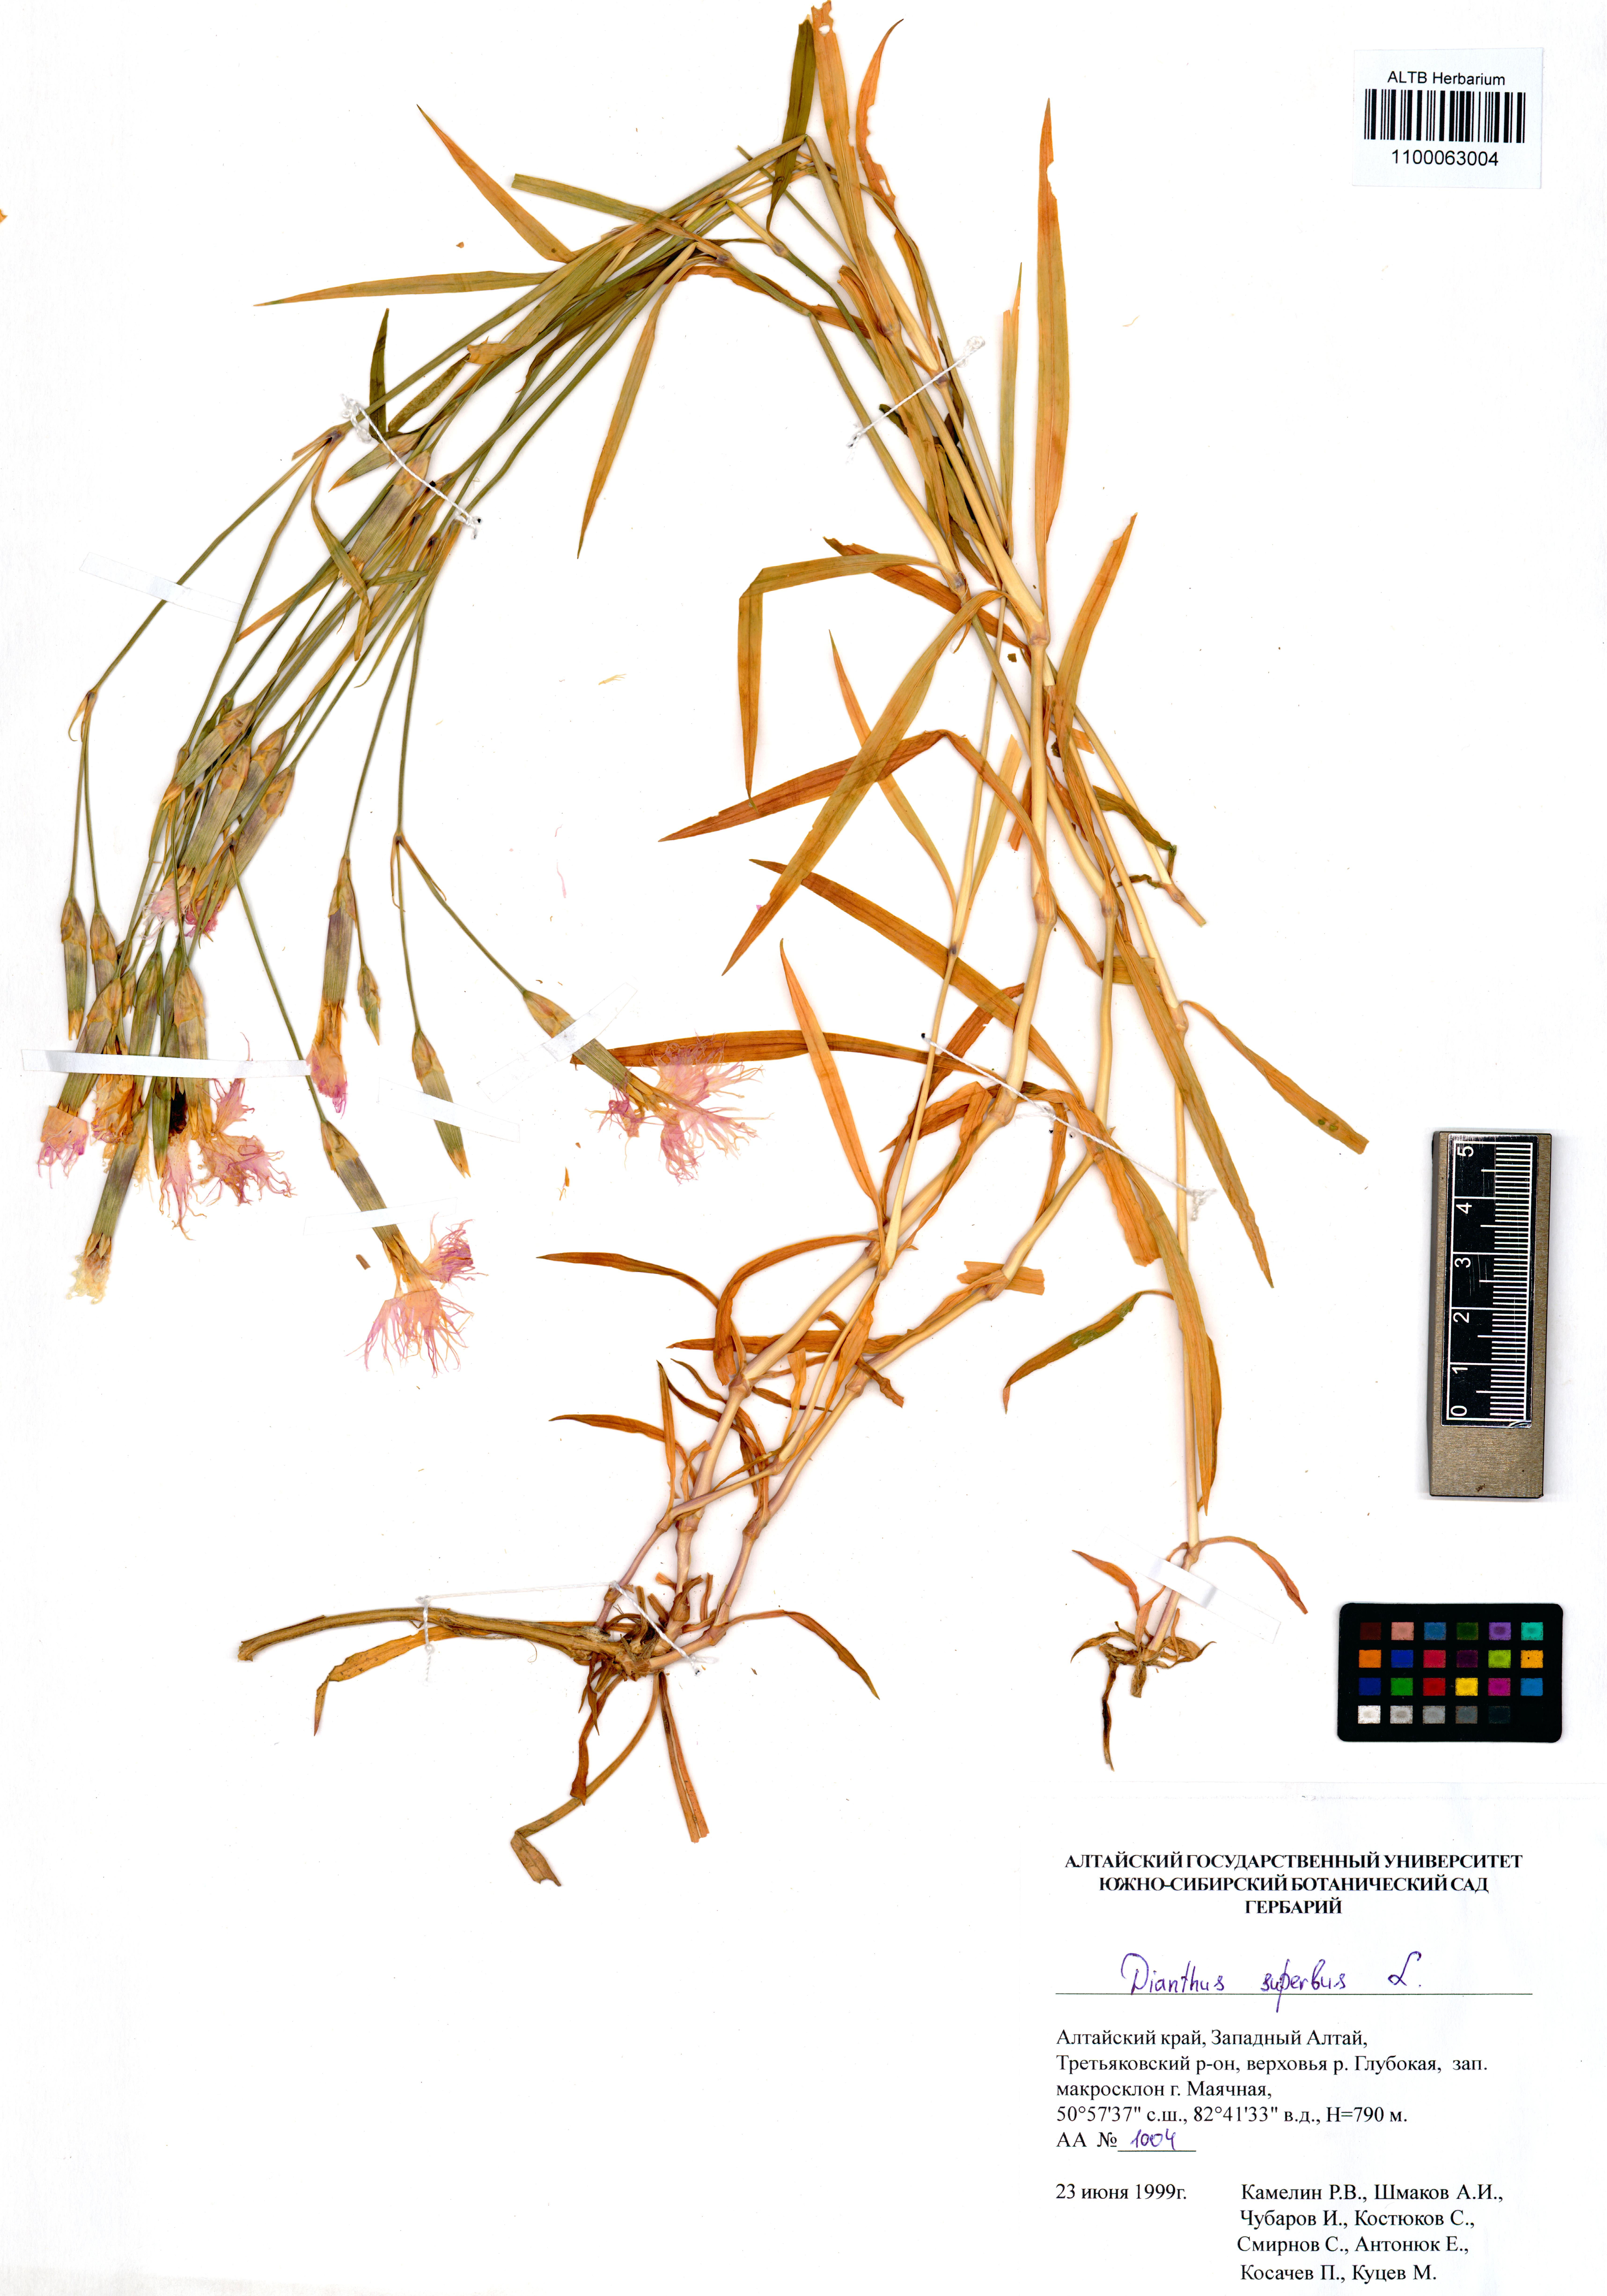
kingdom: Plantae
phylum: Tracheophyta
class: Magnoliopsida
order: Caryophyllales
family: Caryophyllaceae
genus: Dianthus
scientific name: Dianthus superbus
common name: Fringed pink
